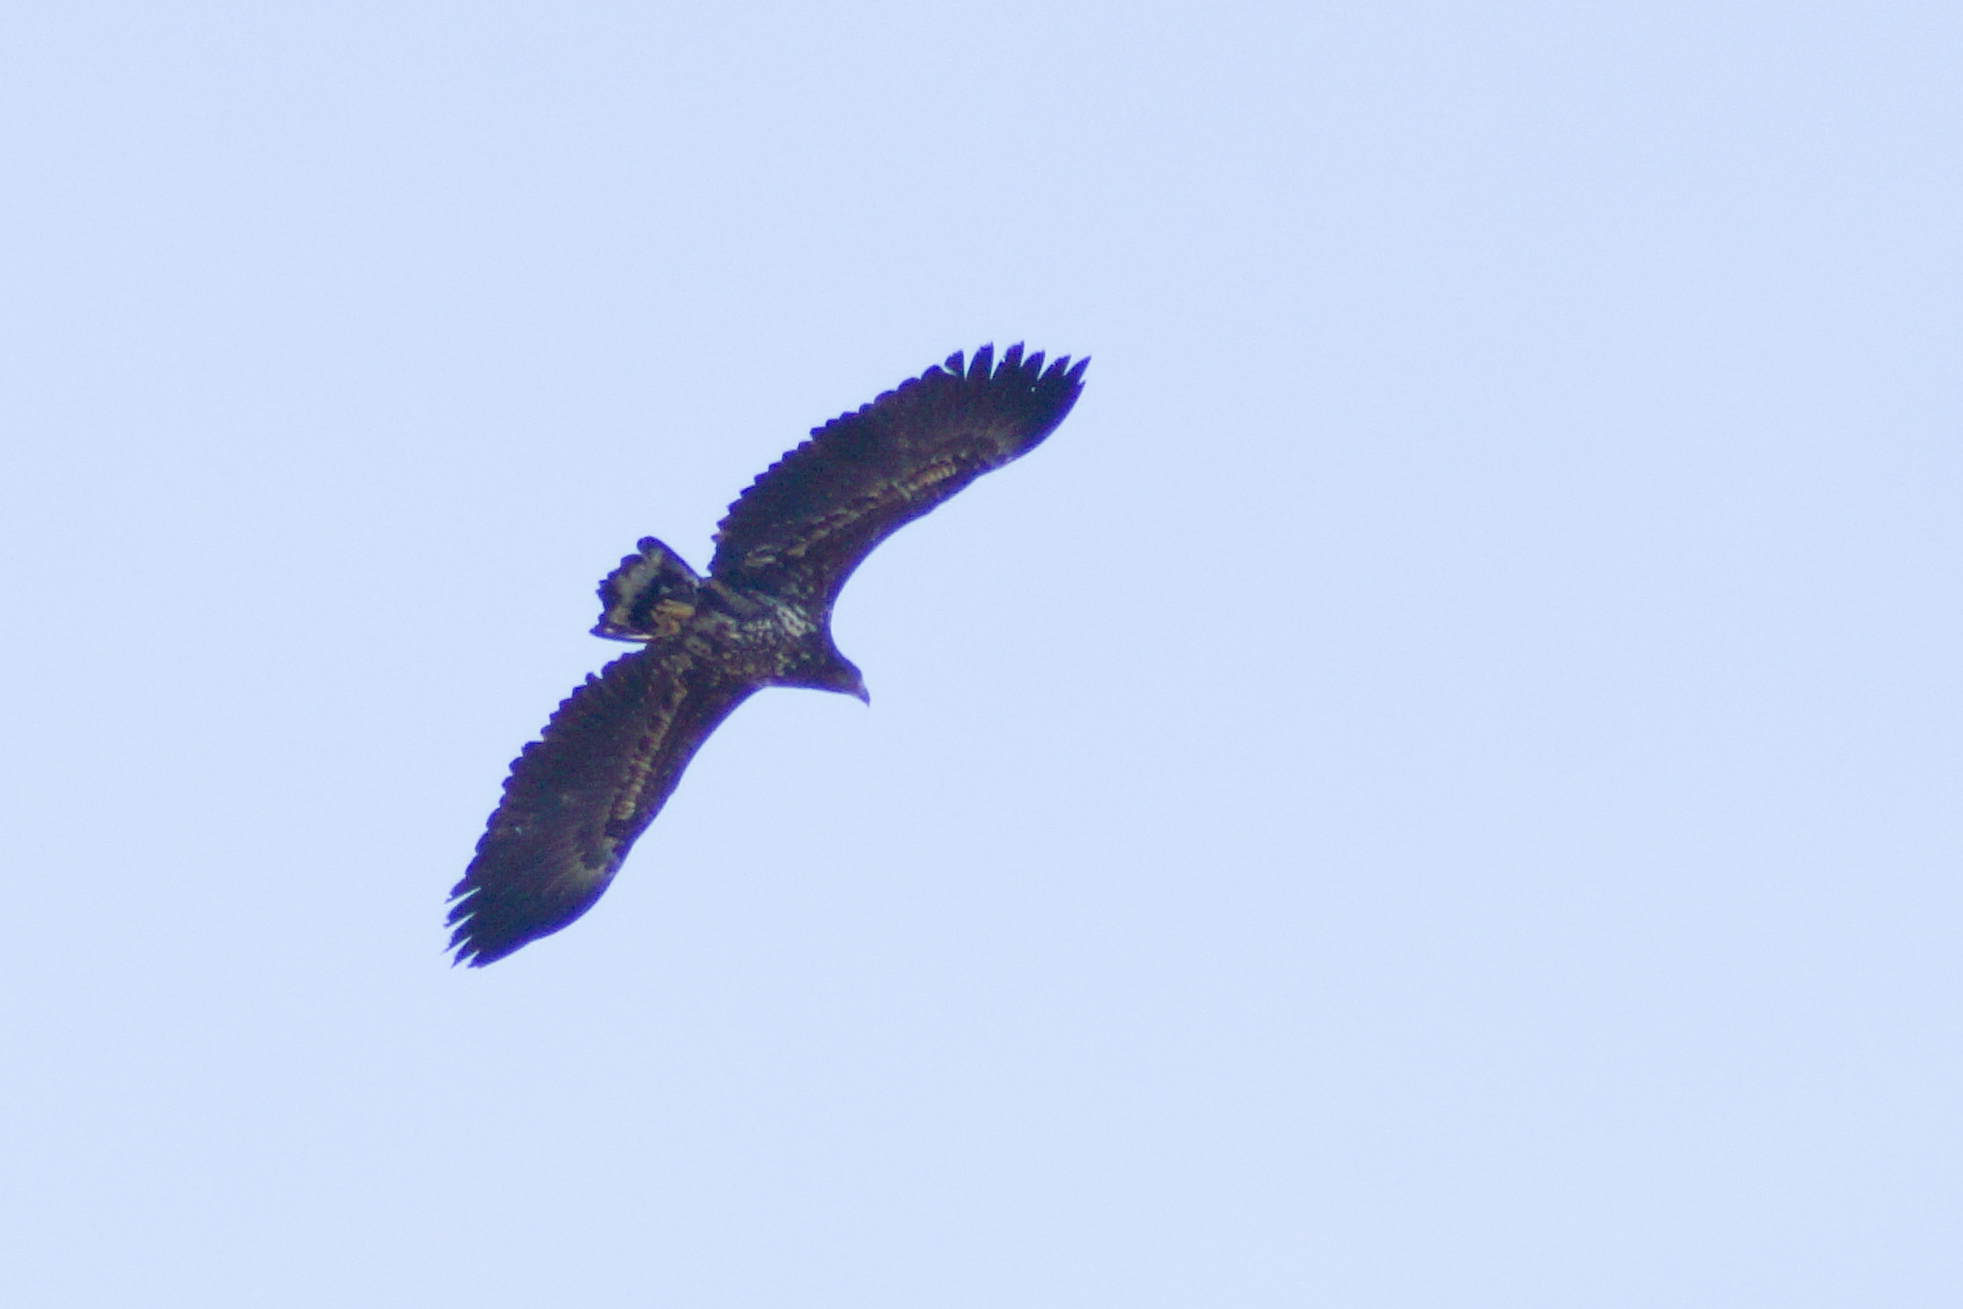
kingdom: Animalia
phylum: Chordata
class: Aves
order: Accipitriformes
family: Accipitridae
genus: Haliaeetus
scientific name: Haliaeetus albicilla
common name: Havørn
